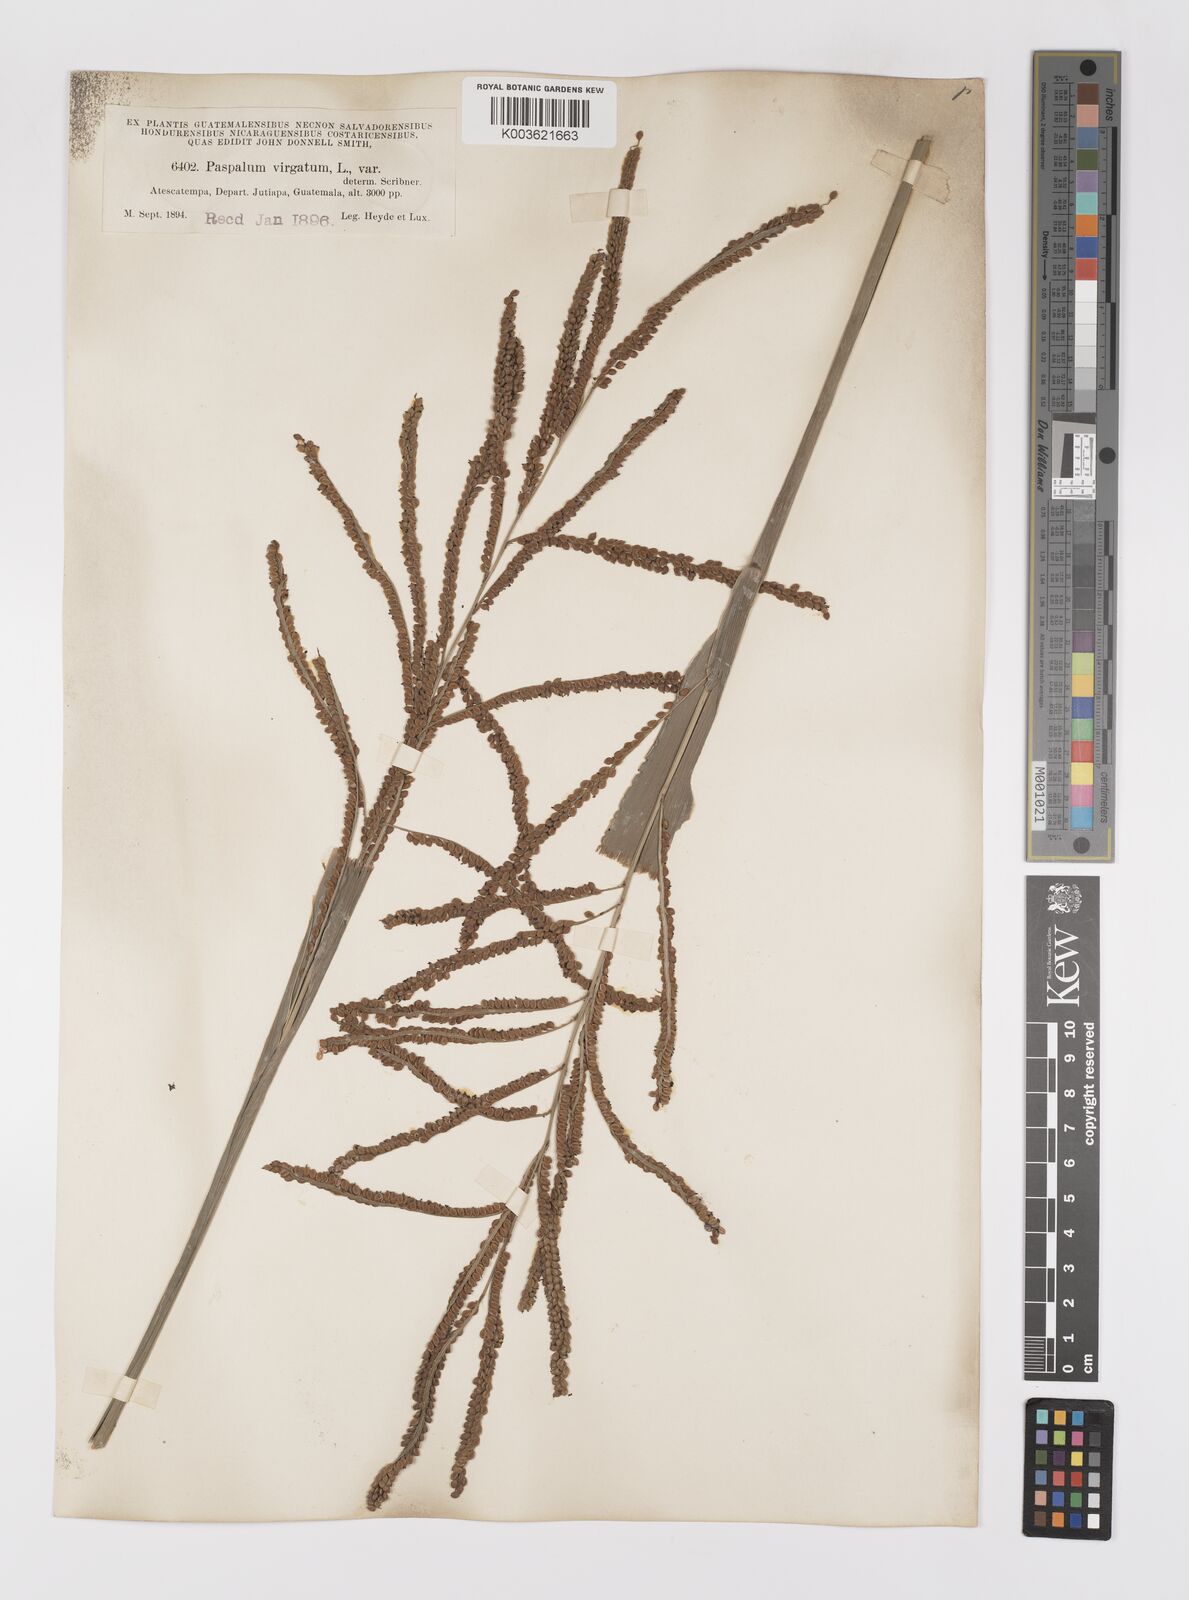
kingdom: Plantae
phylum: Tracheophyta
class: Liliopsida
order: Poales
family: Poaceae
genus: Paspalum
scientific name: Paspalum virgatum
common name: Talquezal
